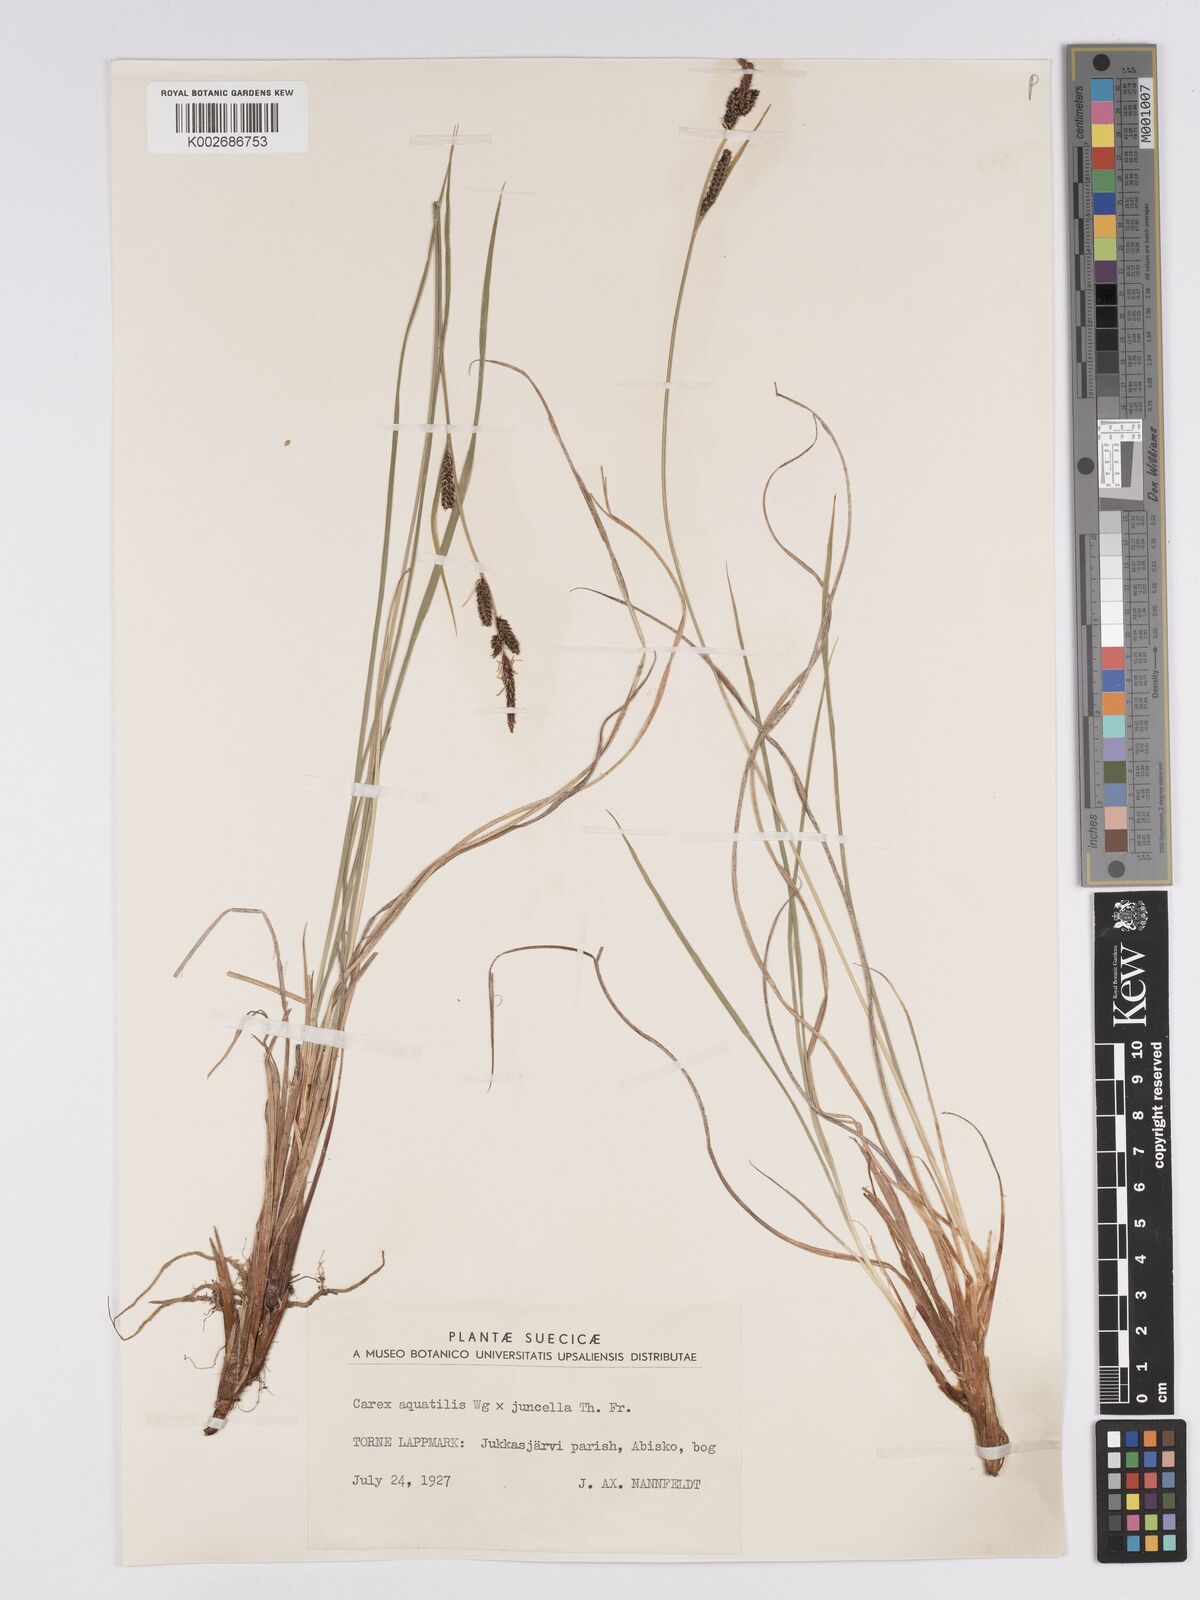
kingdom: Plantae
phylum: Tracheophyta
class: Liliopsida
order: Poales
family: Cyperaceae
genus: Carex
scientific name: Carex aquatilis
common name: Water sedge
